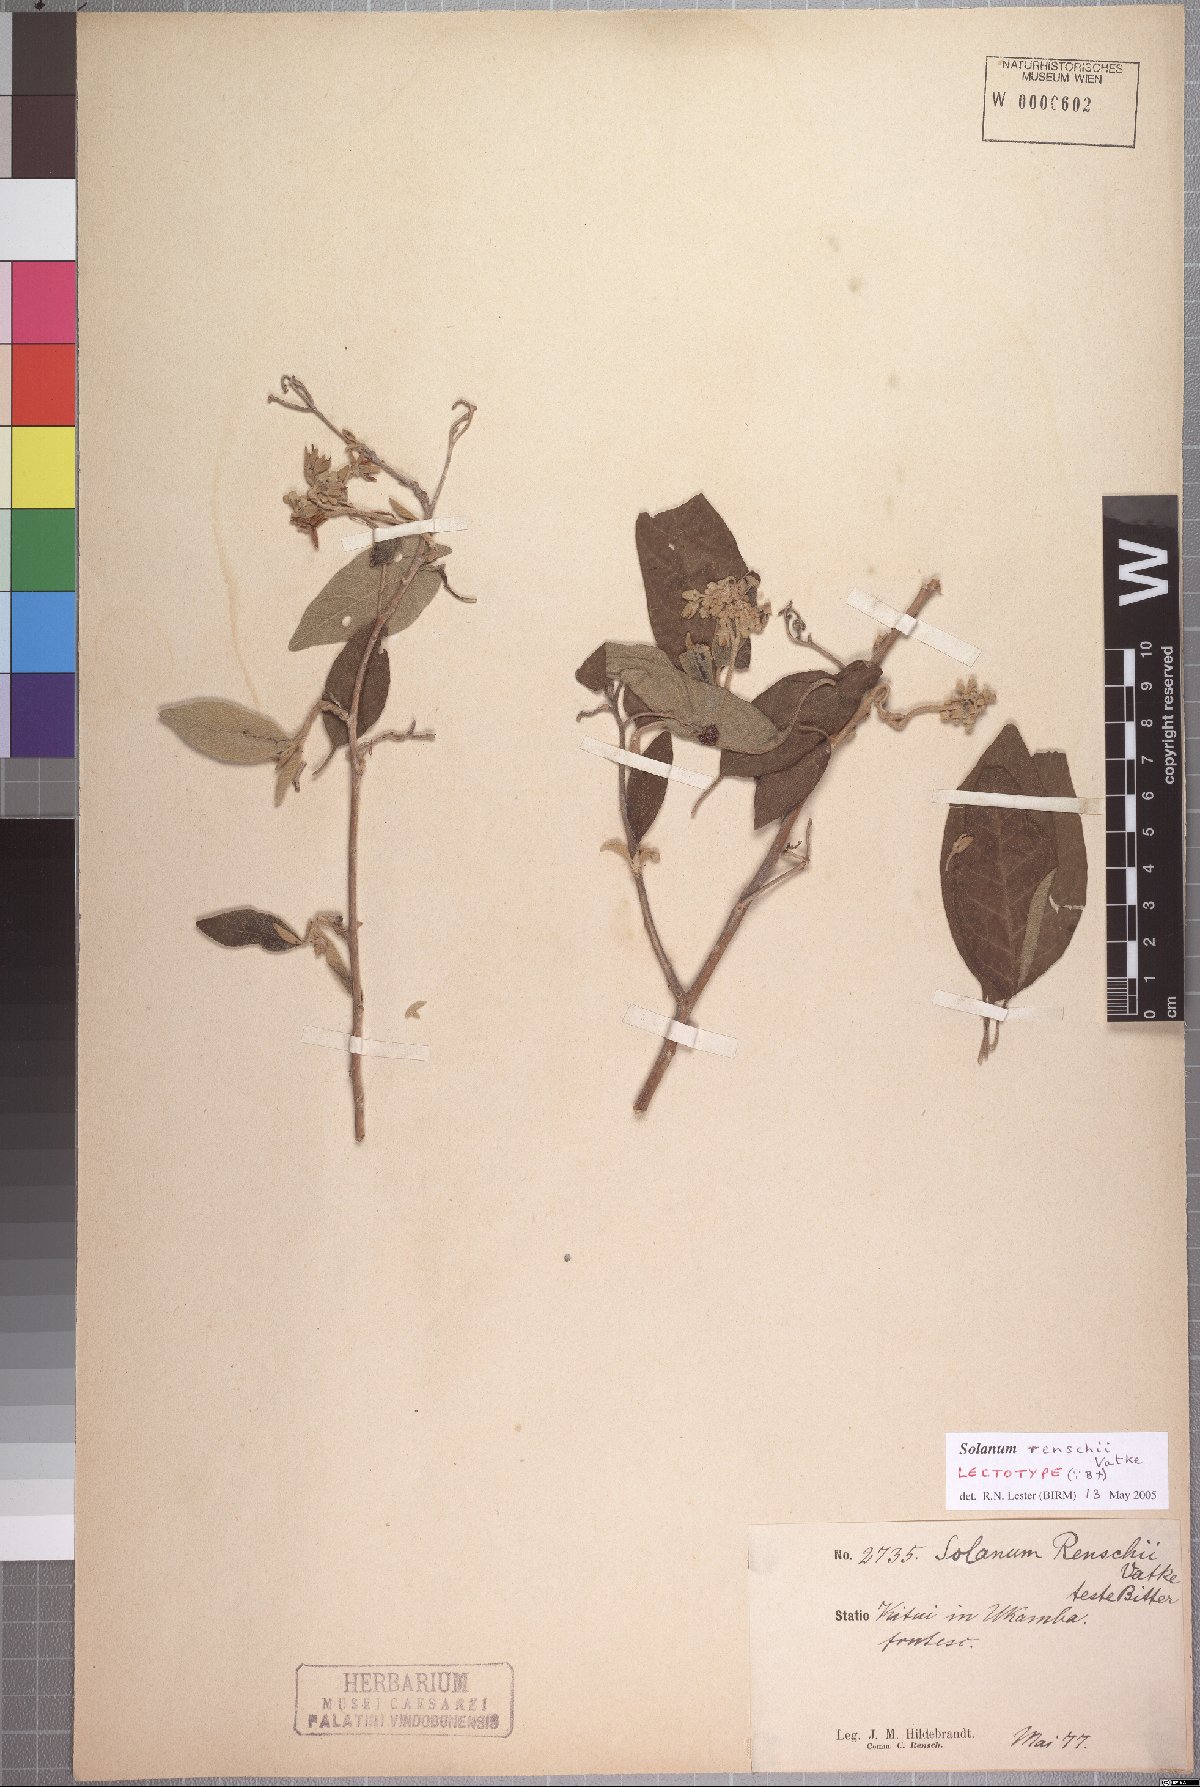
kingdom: Plantae
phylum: Tracheophyta
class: Magnoliopsida
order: Solanales
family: Solanaceae
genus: Solanum
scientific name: Solanum tettense
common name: Mozambique bitter apple
